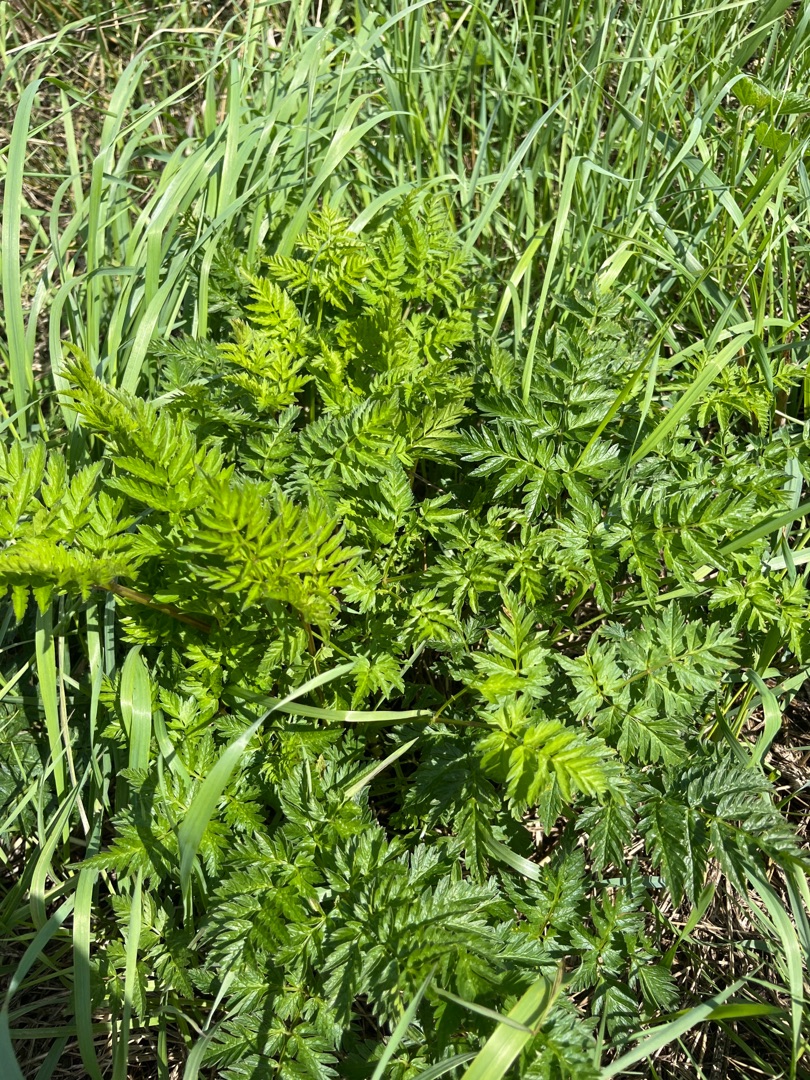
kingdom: Plantae
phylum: Tracheophyta
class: Magnoliopsida
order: Apiales
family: Apiaceae
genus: Anthriscus
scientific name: Anthriscus sylvestris
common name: Vild kørvel
